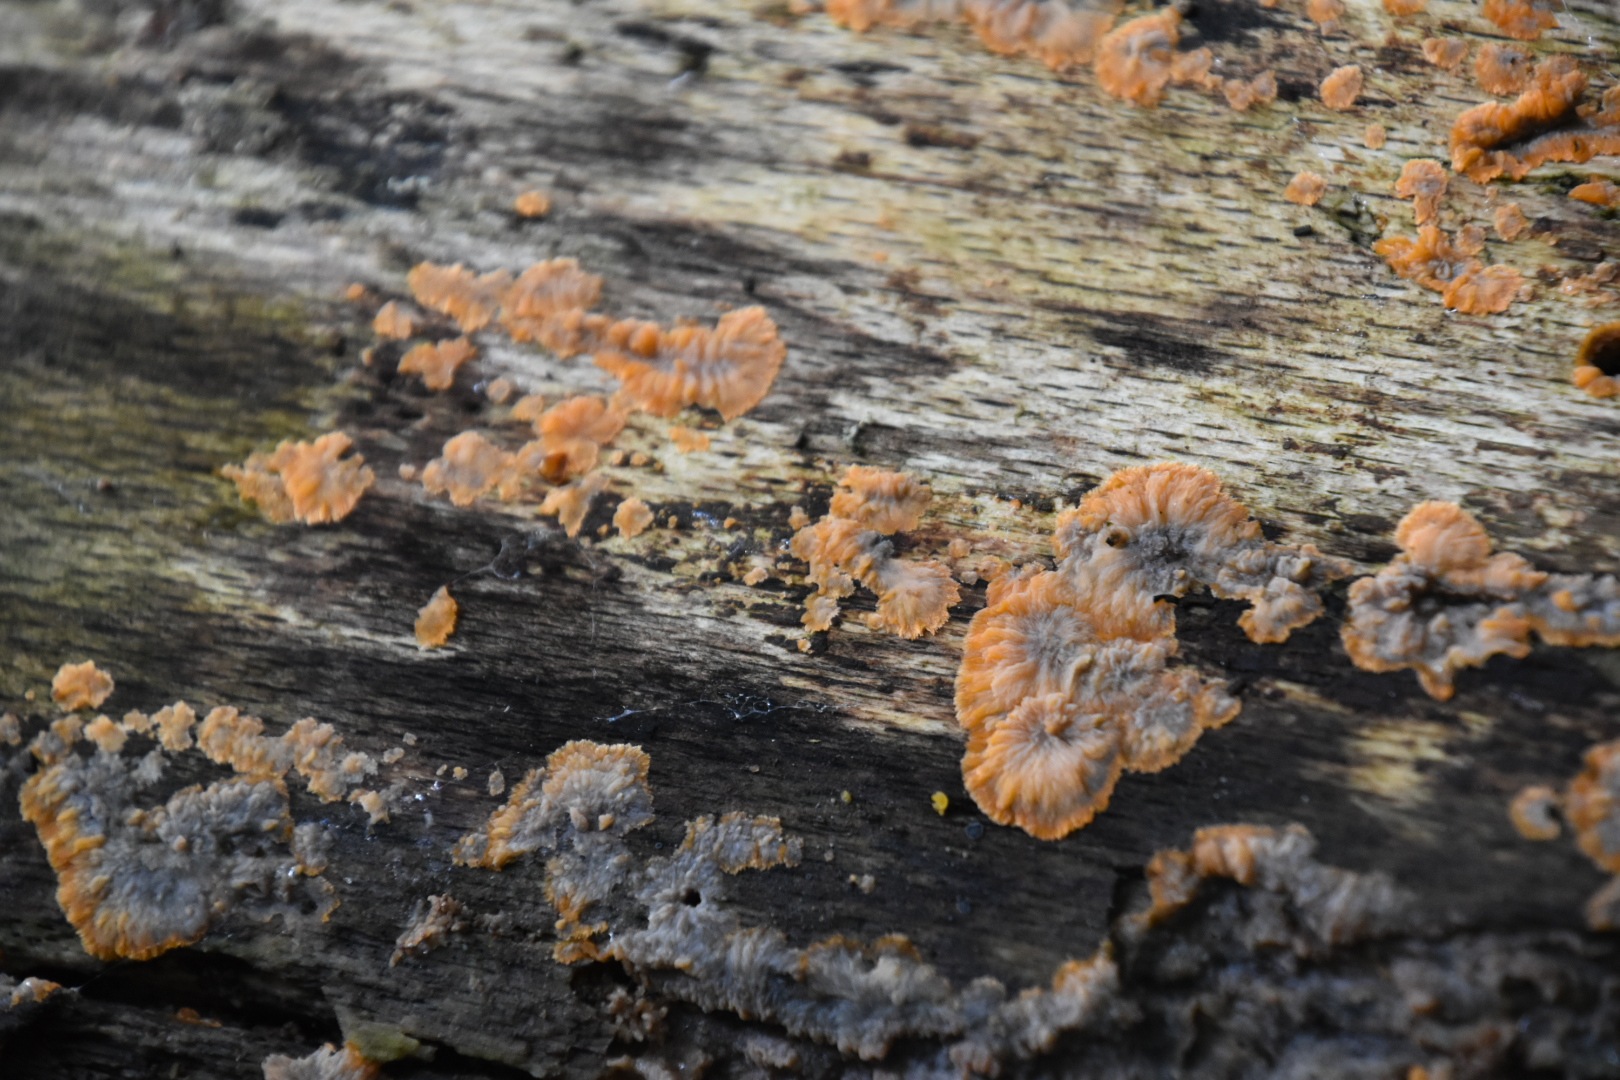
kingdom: Fungi
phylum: Basidiomycota
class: Agaricomycetes
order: Polyporales
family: Meruliaceae
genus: Phlebia
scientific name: Phlebia radiata
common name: stråle-åresvamp
